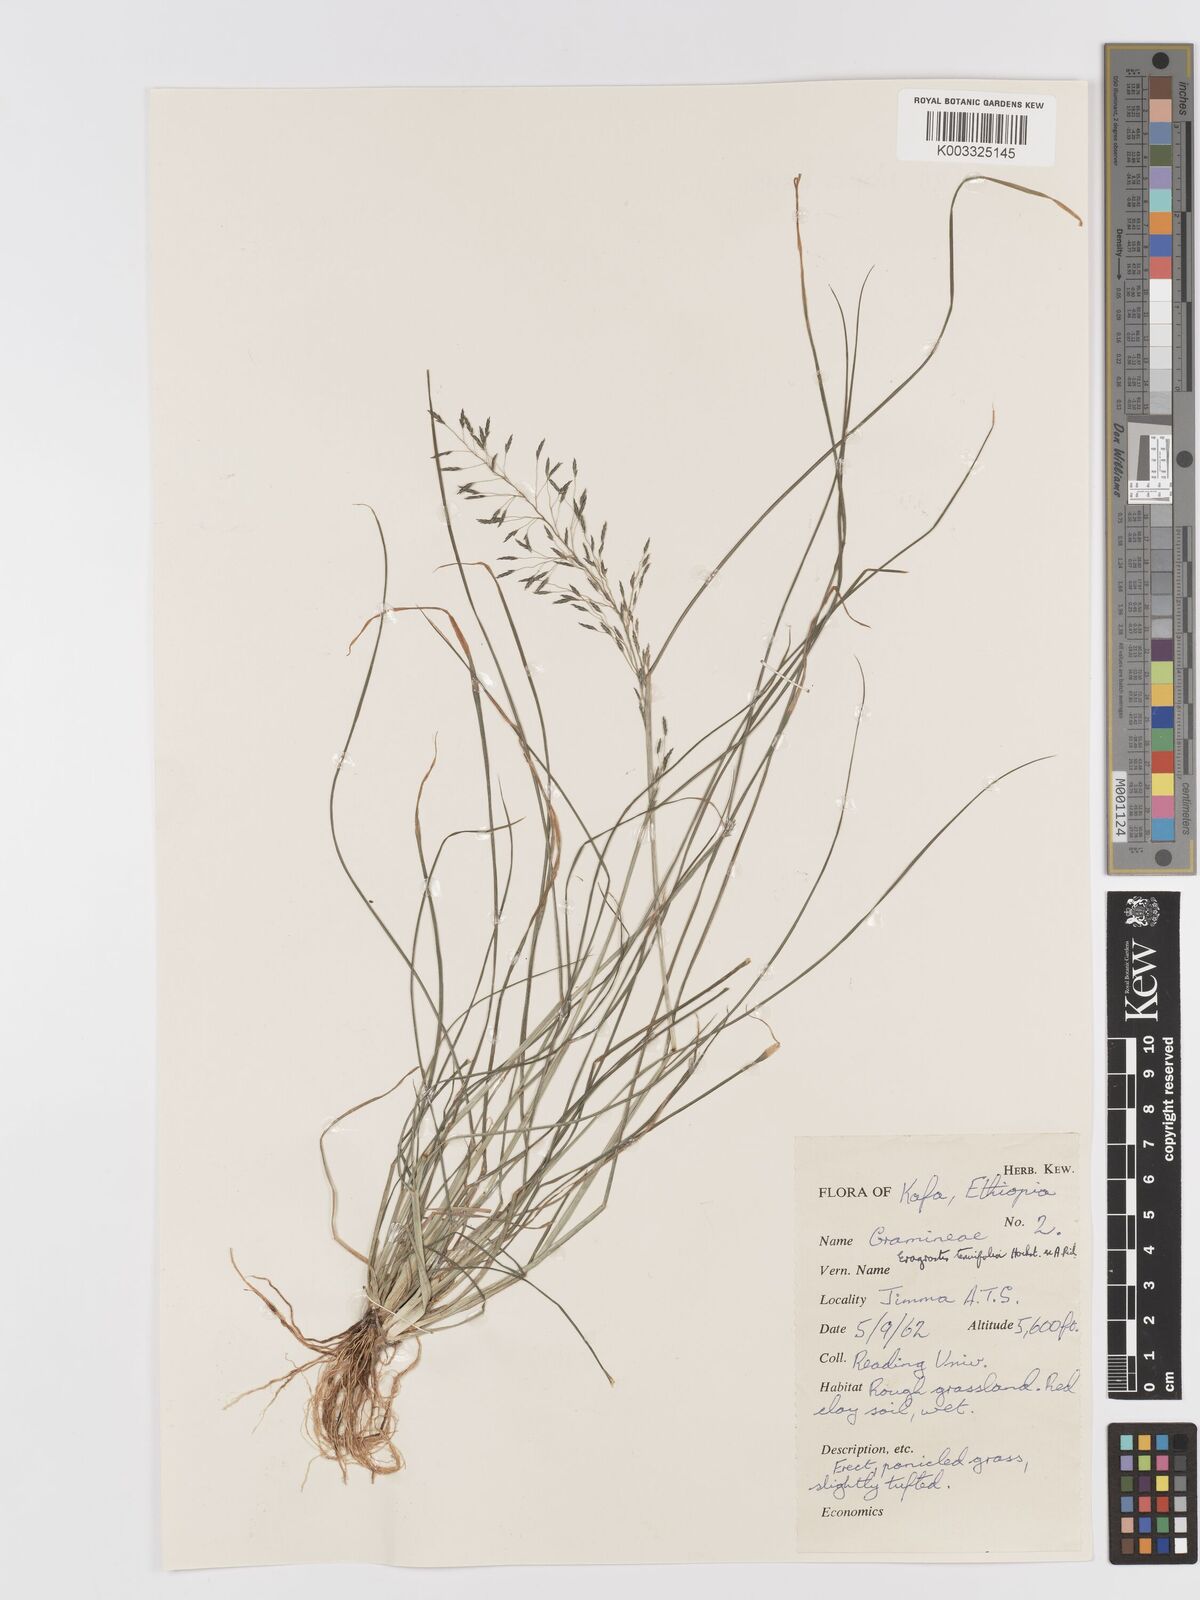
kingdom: Plantae
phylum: Tracheophyta
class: Liliopsida
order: Poales
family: Poaceae
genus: Eragrostis
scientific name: Eragrostis tenuifolia
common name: Elastic grass
